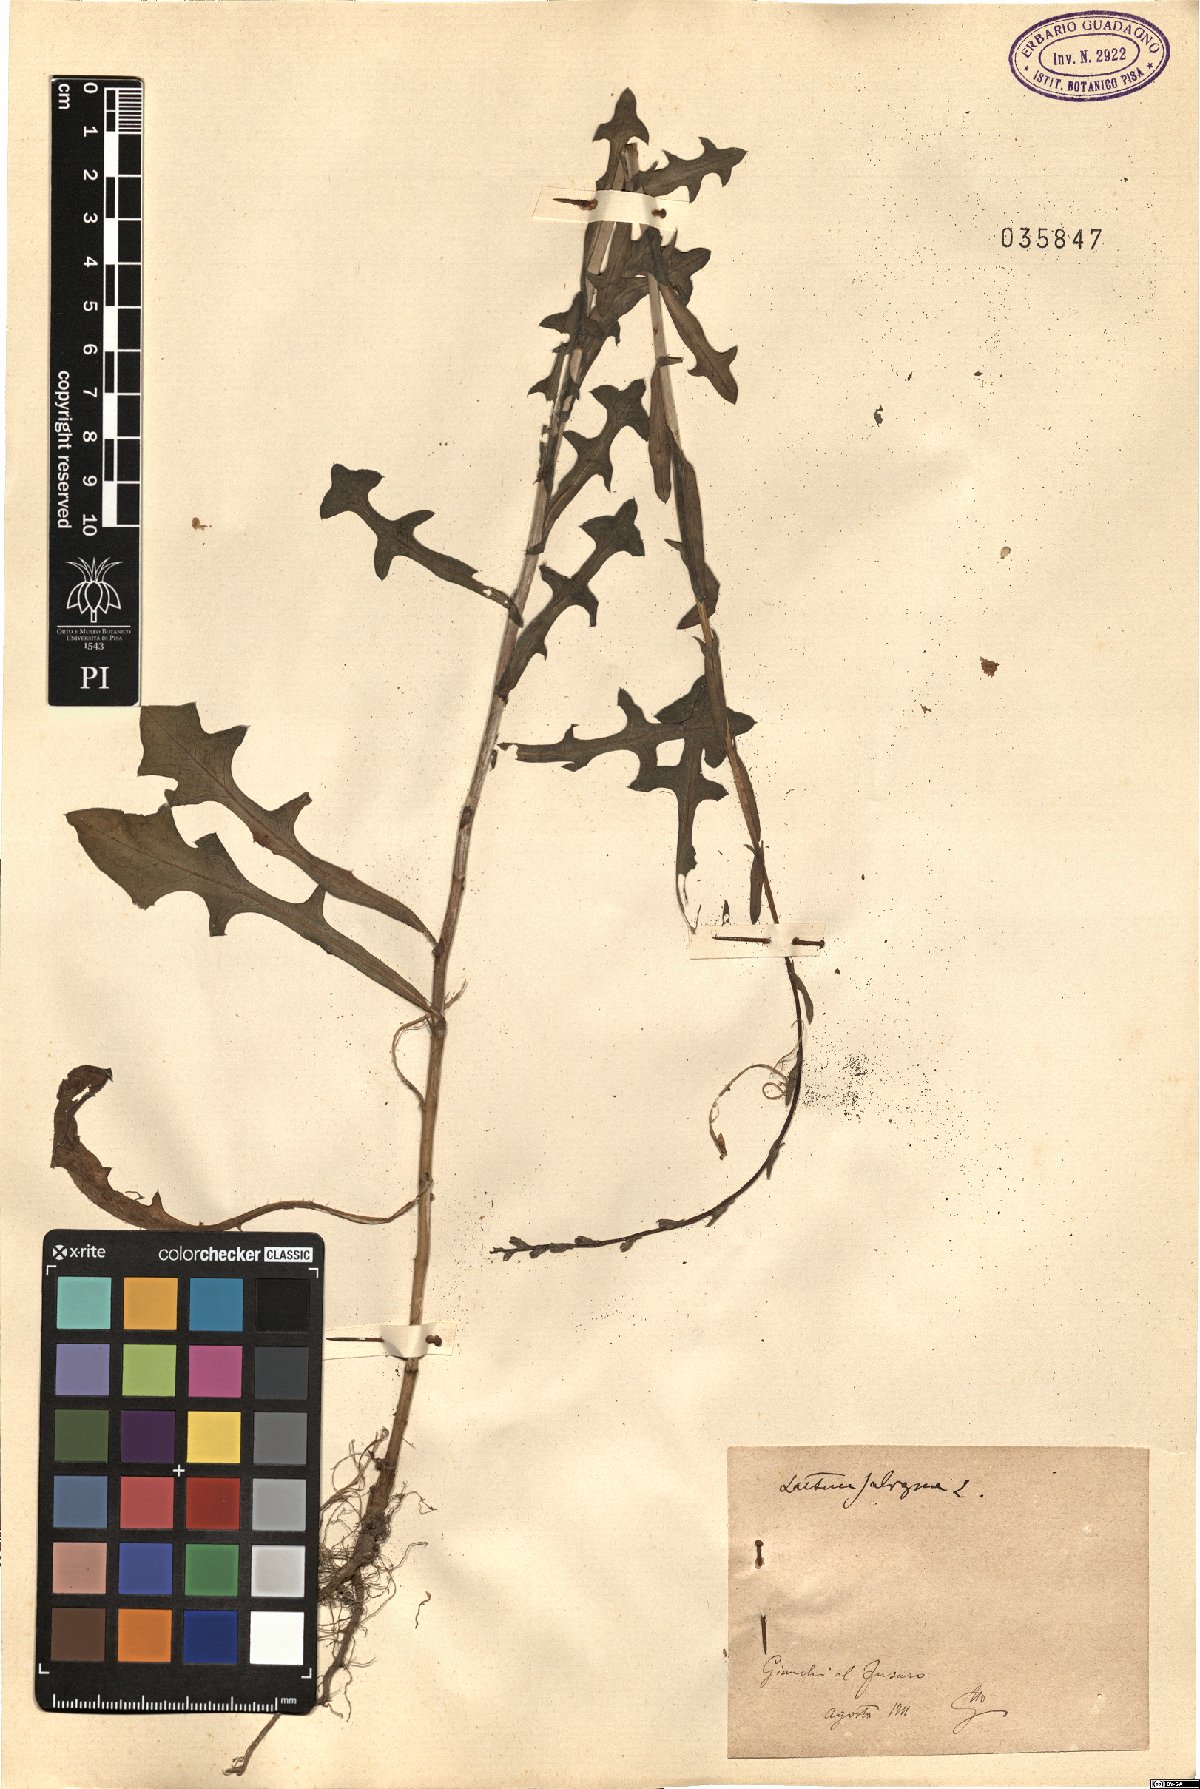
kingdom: Plantae
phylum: Tracheophyta
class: Magnoliopsida
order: Asterales
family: Asteraceae
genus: Lactuca
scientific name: Lactuca saligna
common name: Wild lettuce
